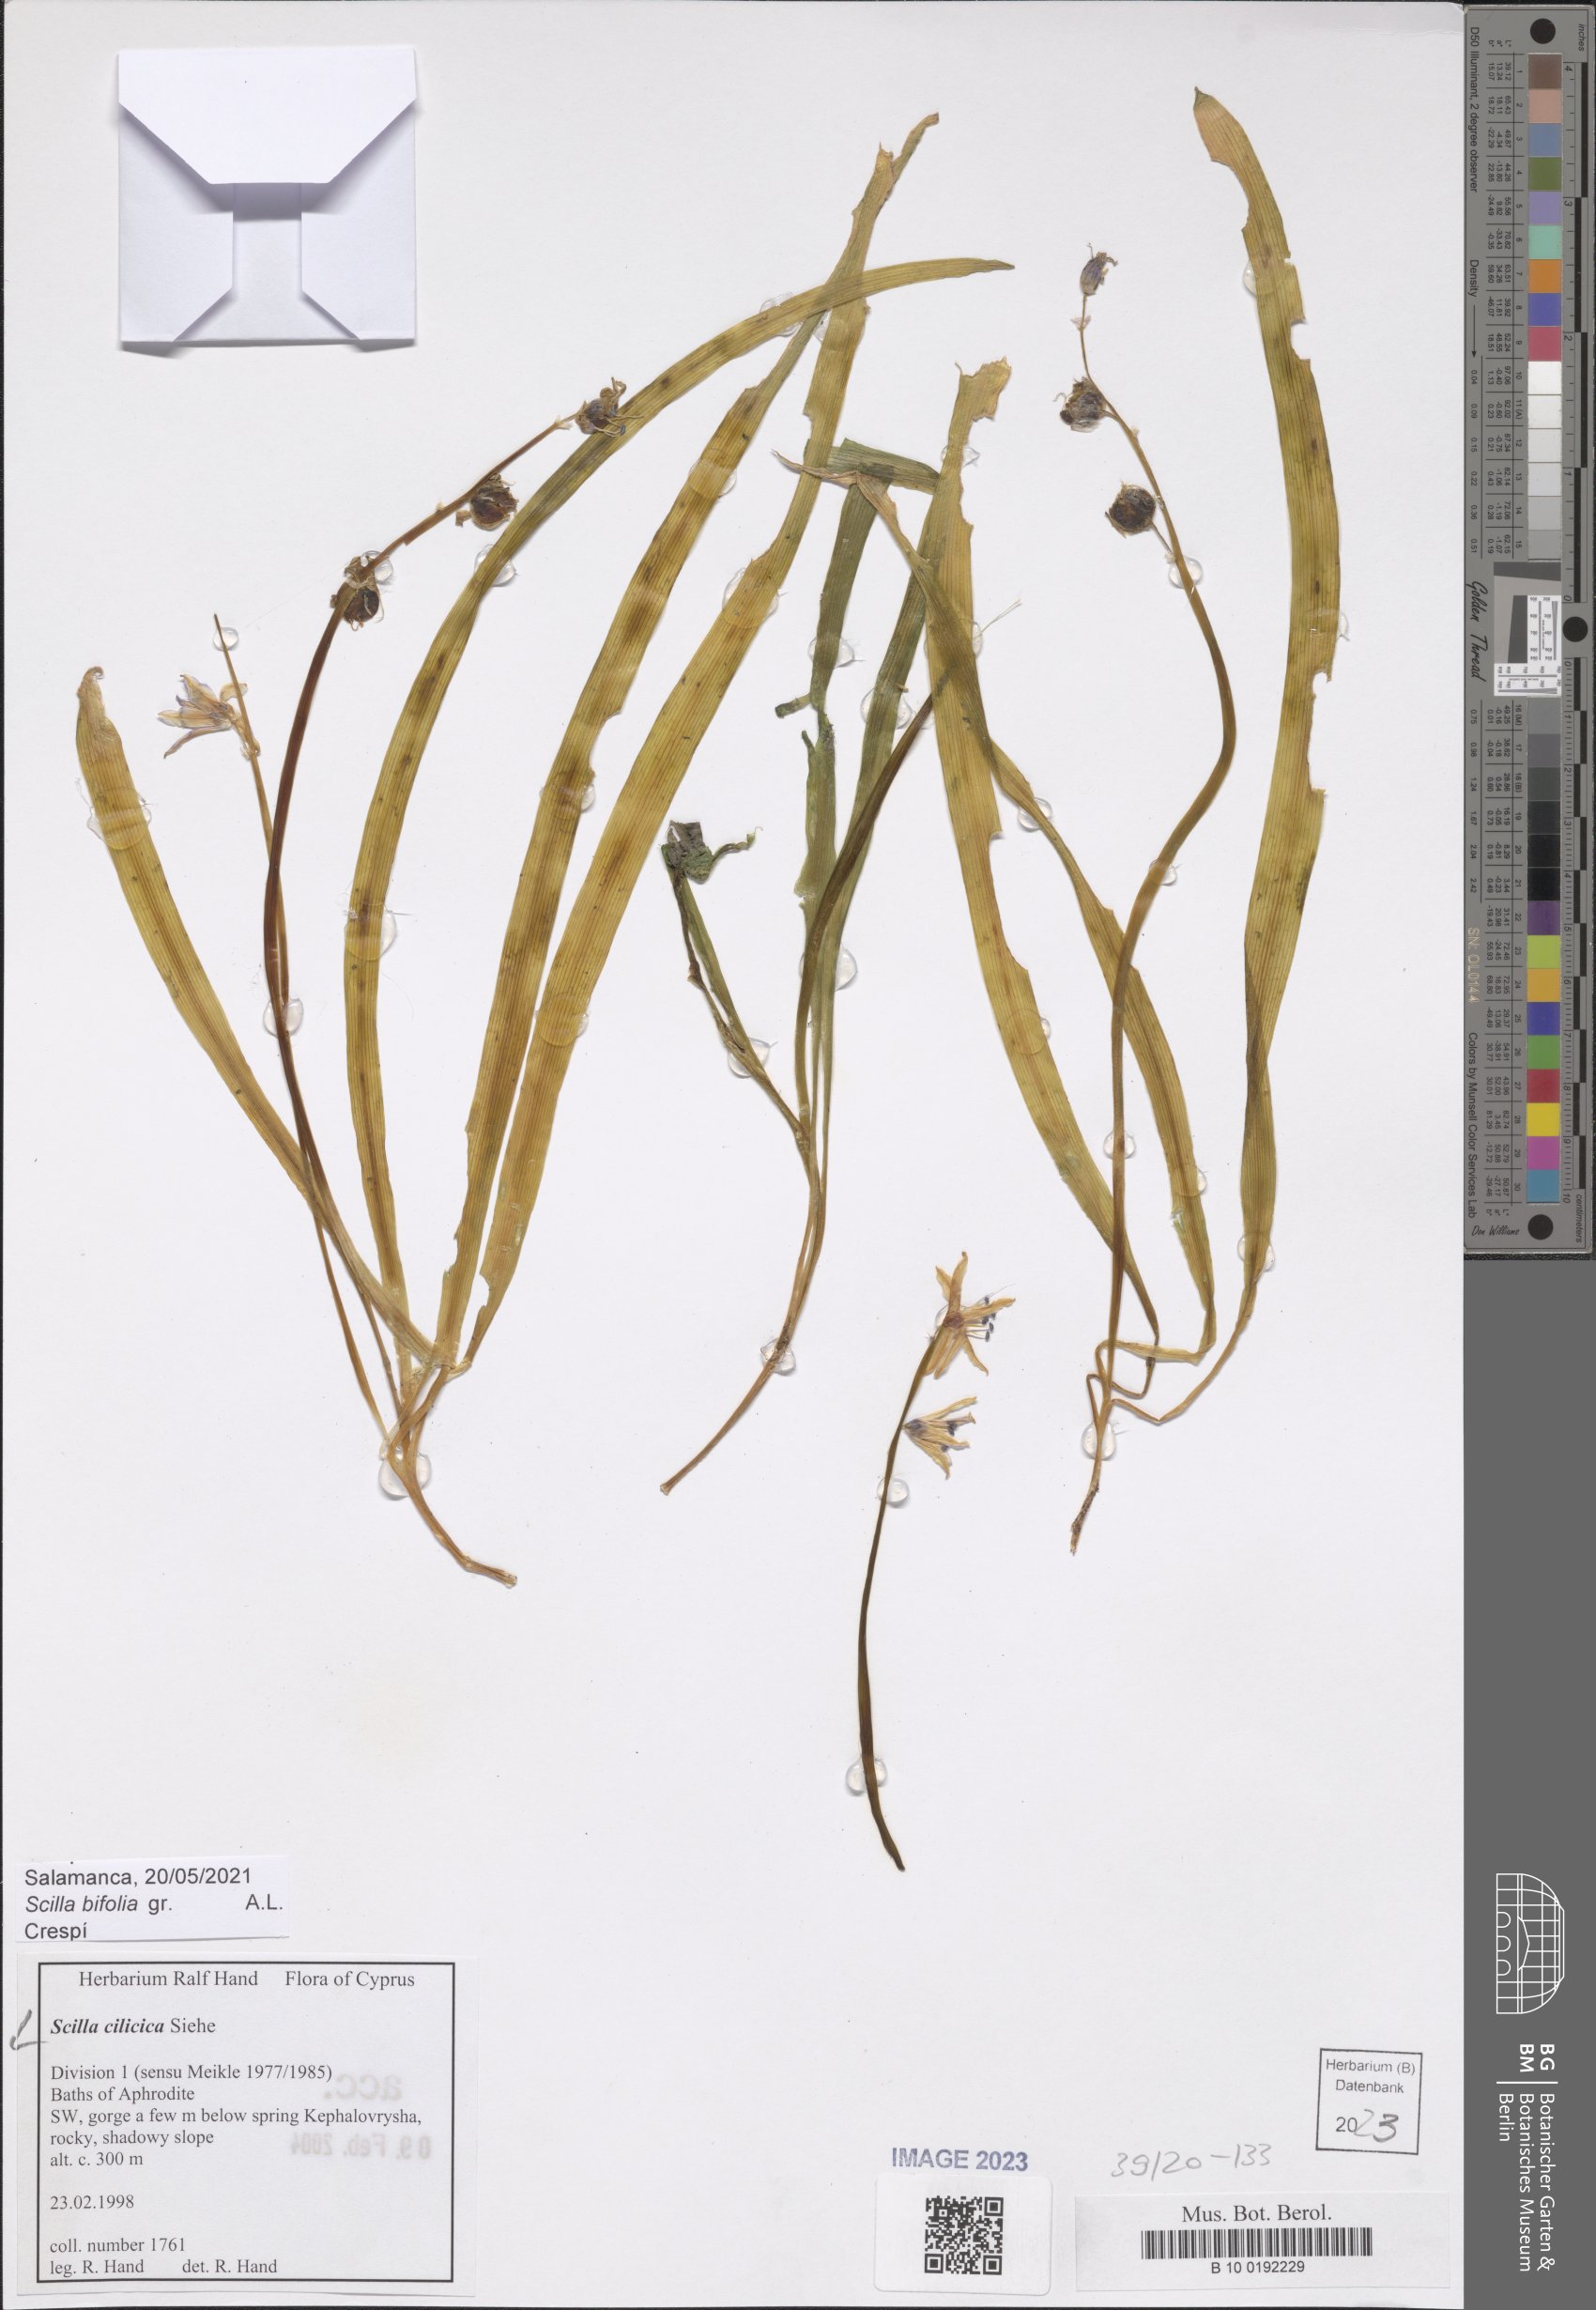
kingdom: Plantae
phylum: Tracheophyta
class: Liliopsida
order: Asparagales
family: Asparagaceae
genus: Scilla
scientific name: Scilla cilicica
